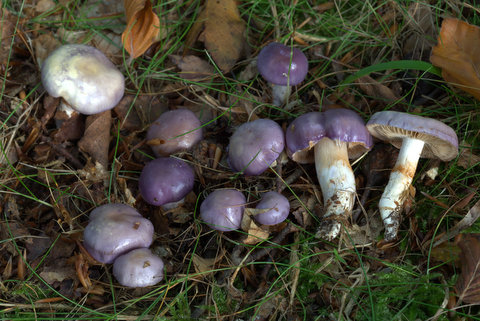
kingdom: Fungi
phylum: Basidiomycota
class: Agaricomycetes
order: Agaricales
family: Cortinariaceae
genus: Thaxterogaster
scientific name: Thaxterogaster croceocoeruleus
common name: blågullig slørhat
